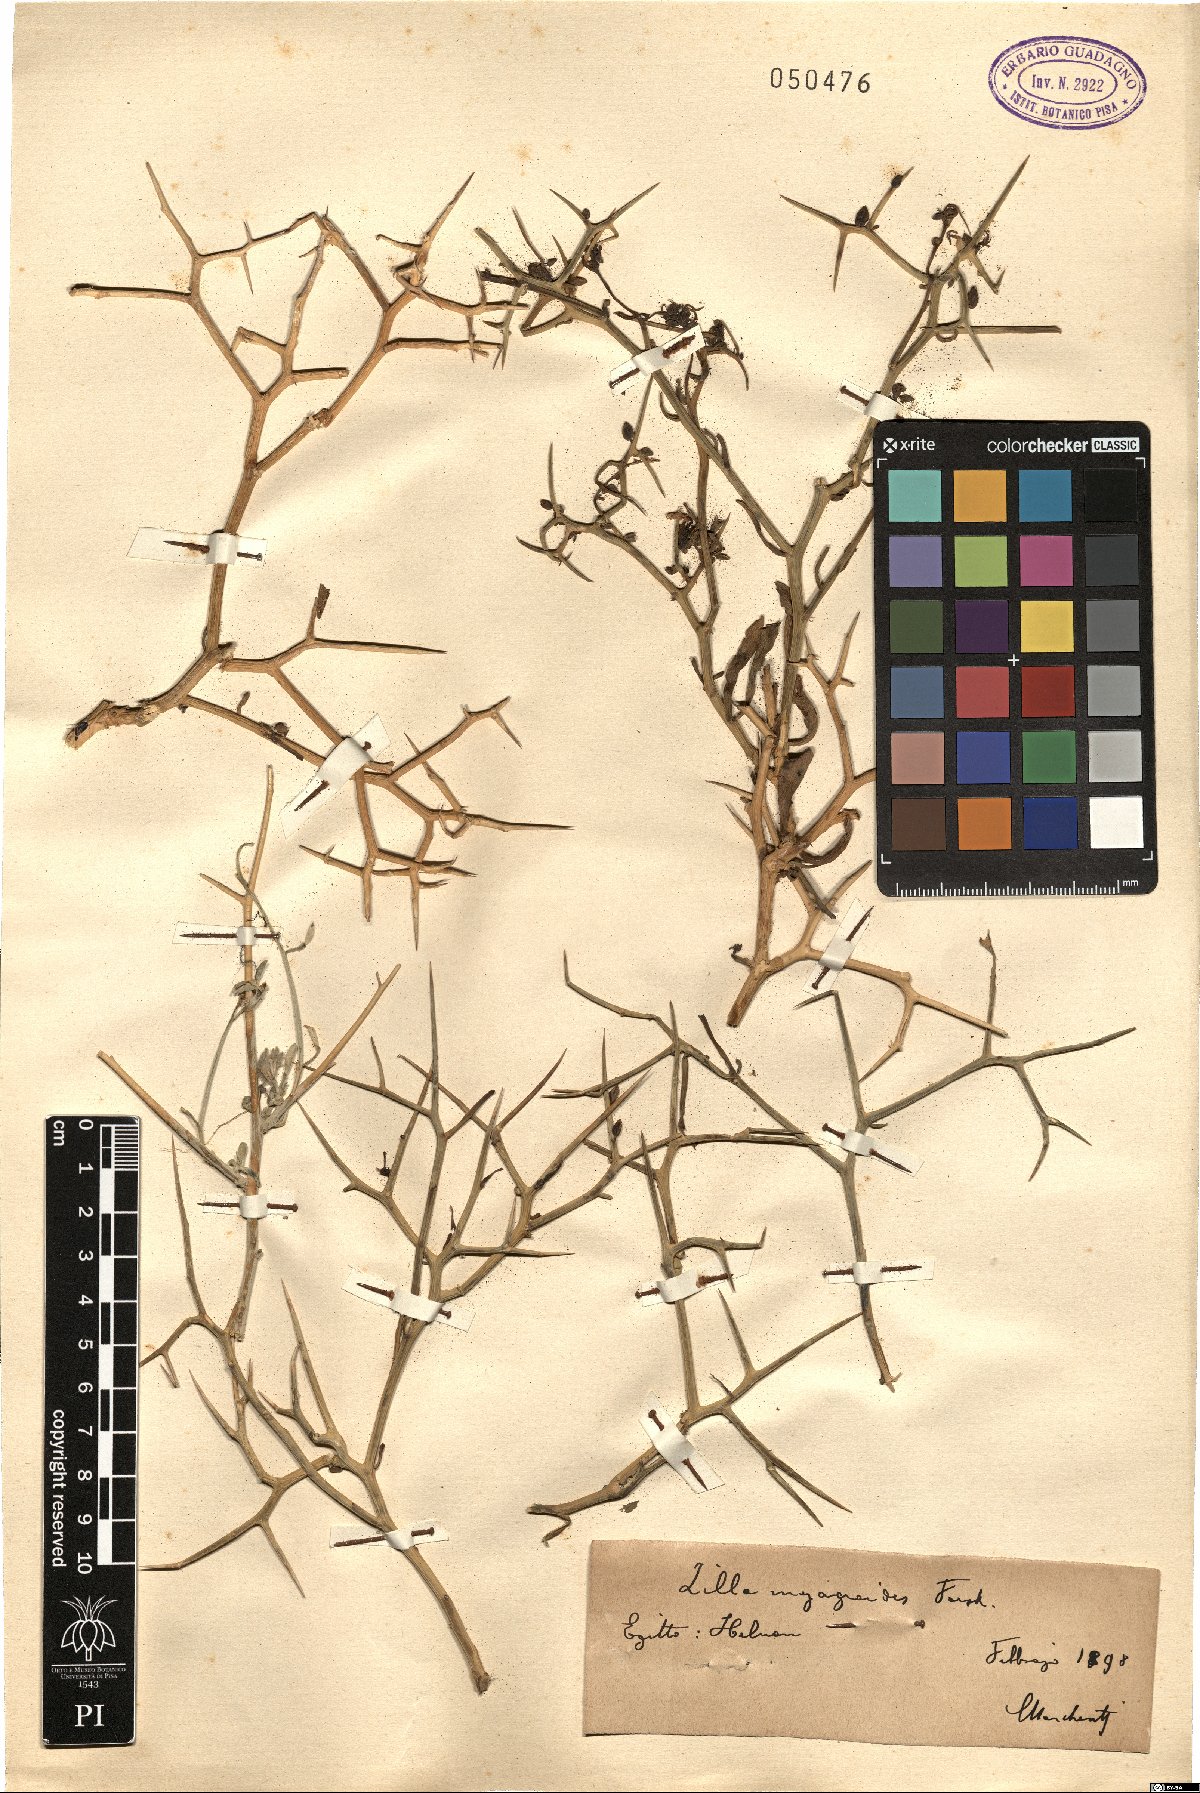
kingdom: Plantae
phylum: Tracheophyta
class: Magnoliopsida
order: Brassicales
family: Brassicaceae
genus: Zilla
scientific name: Zilla spinosa
